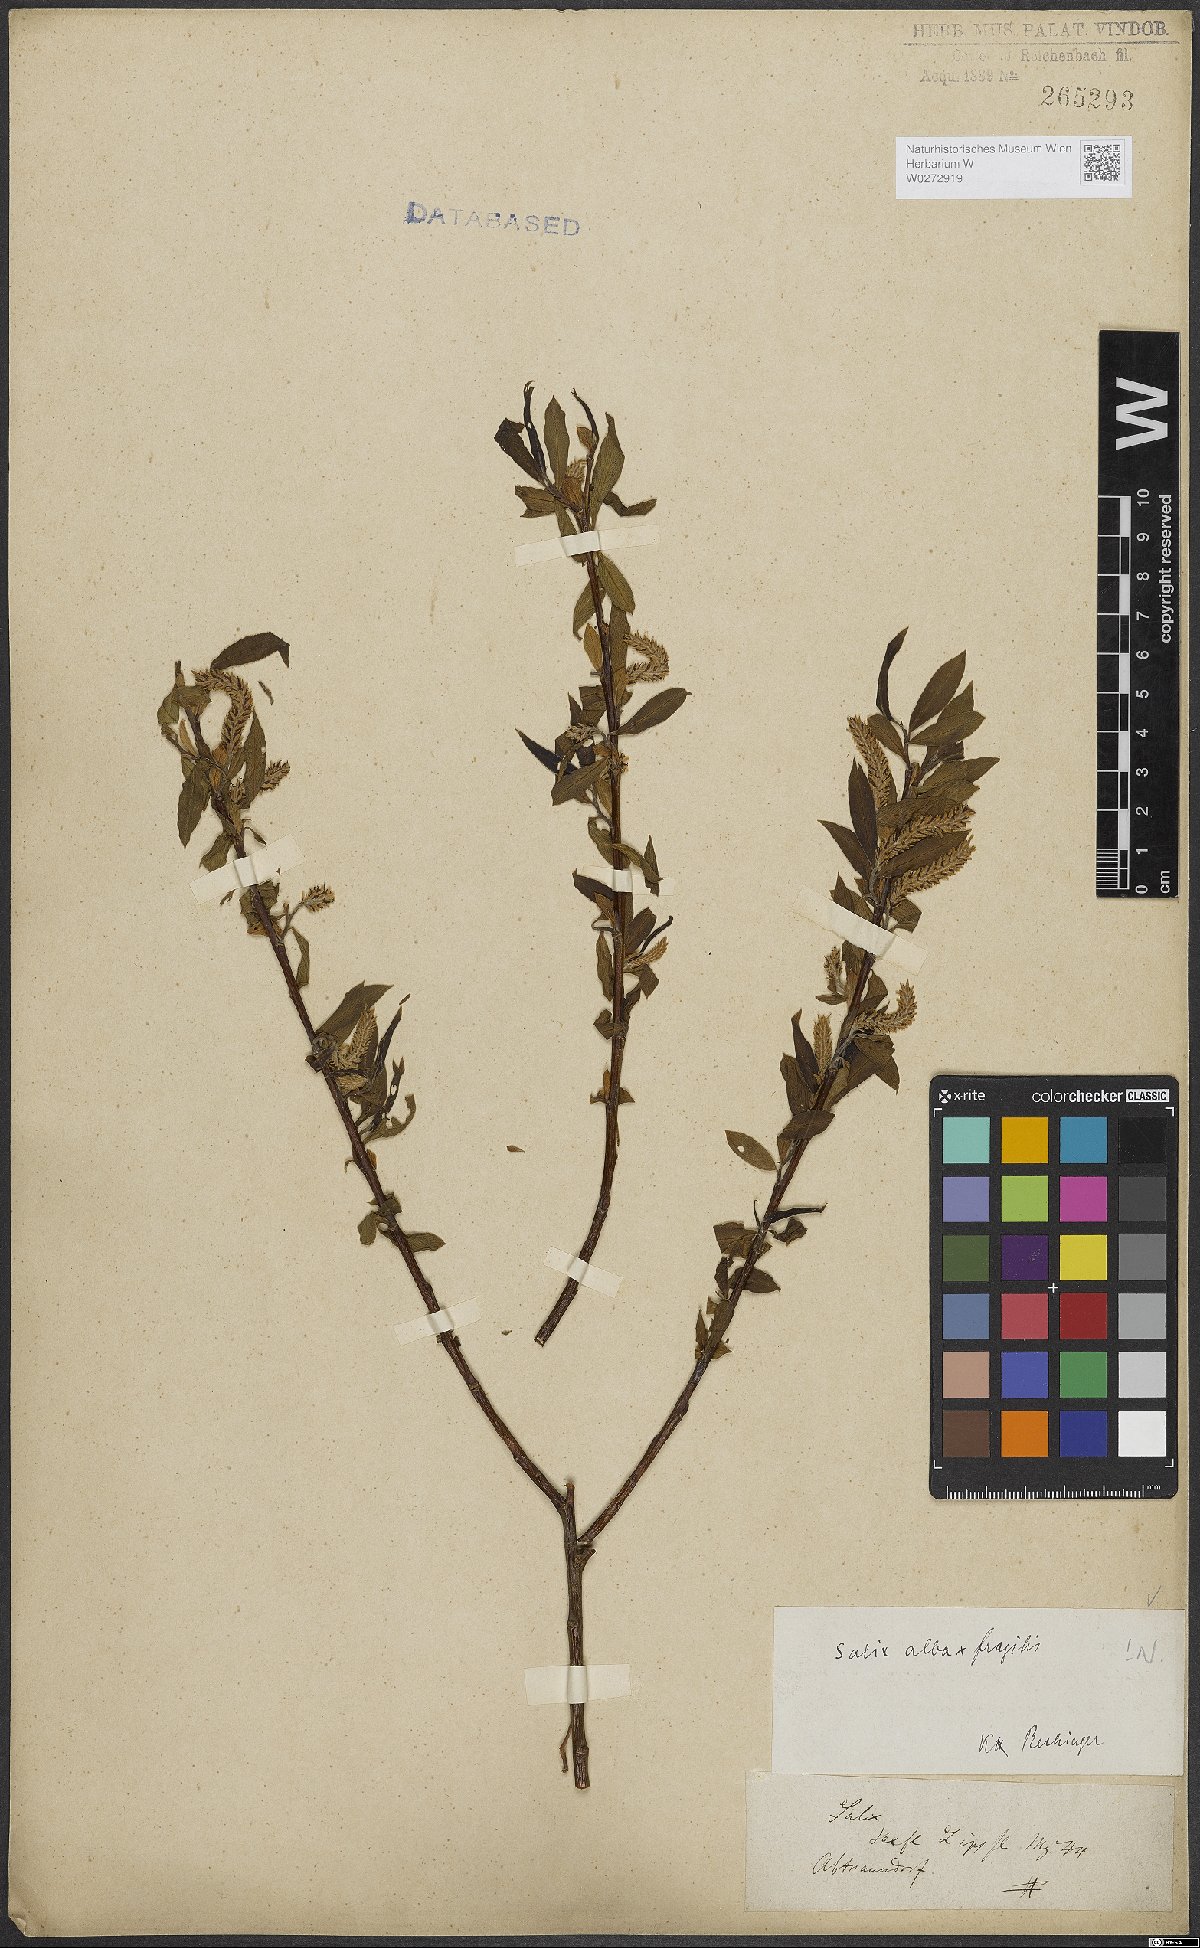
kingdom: Plantae
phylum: Tracheophyta
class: Magnoliopsida
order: Malpighiales
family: Salicaceae
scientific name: Salicaceae
